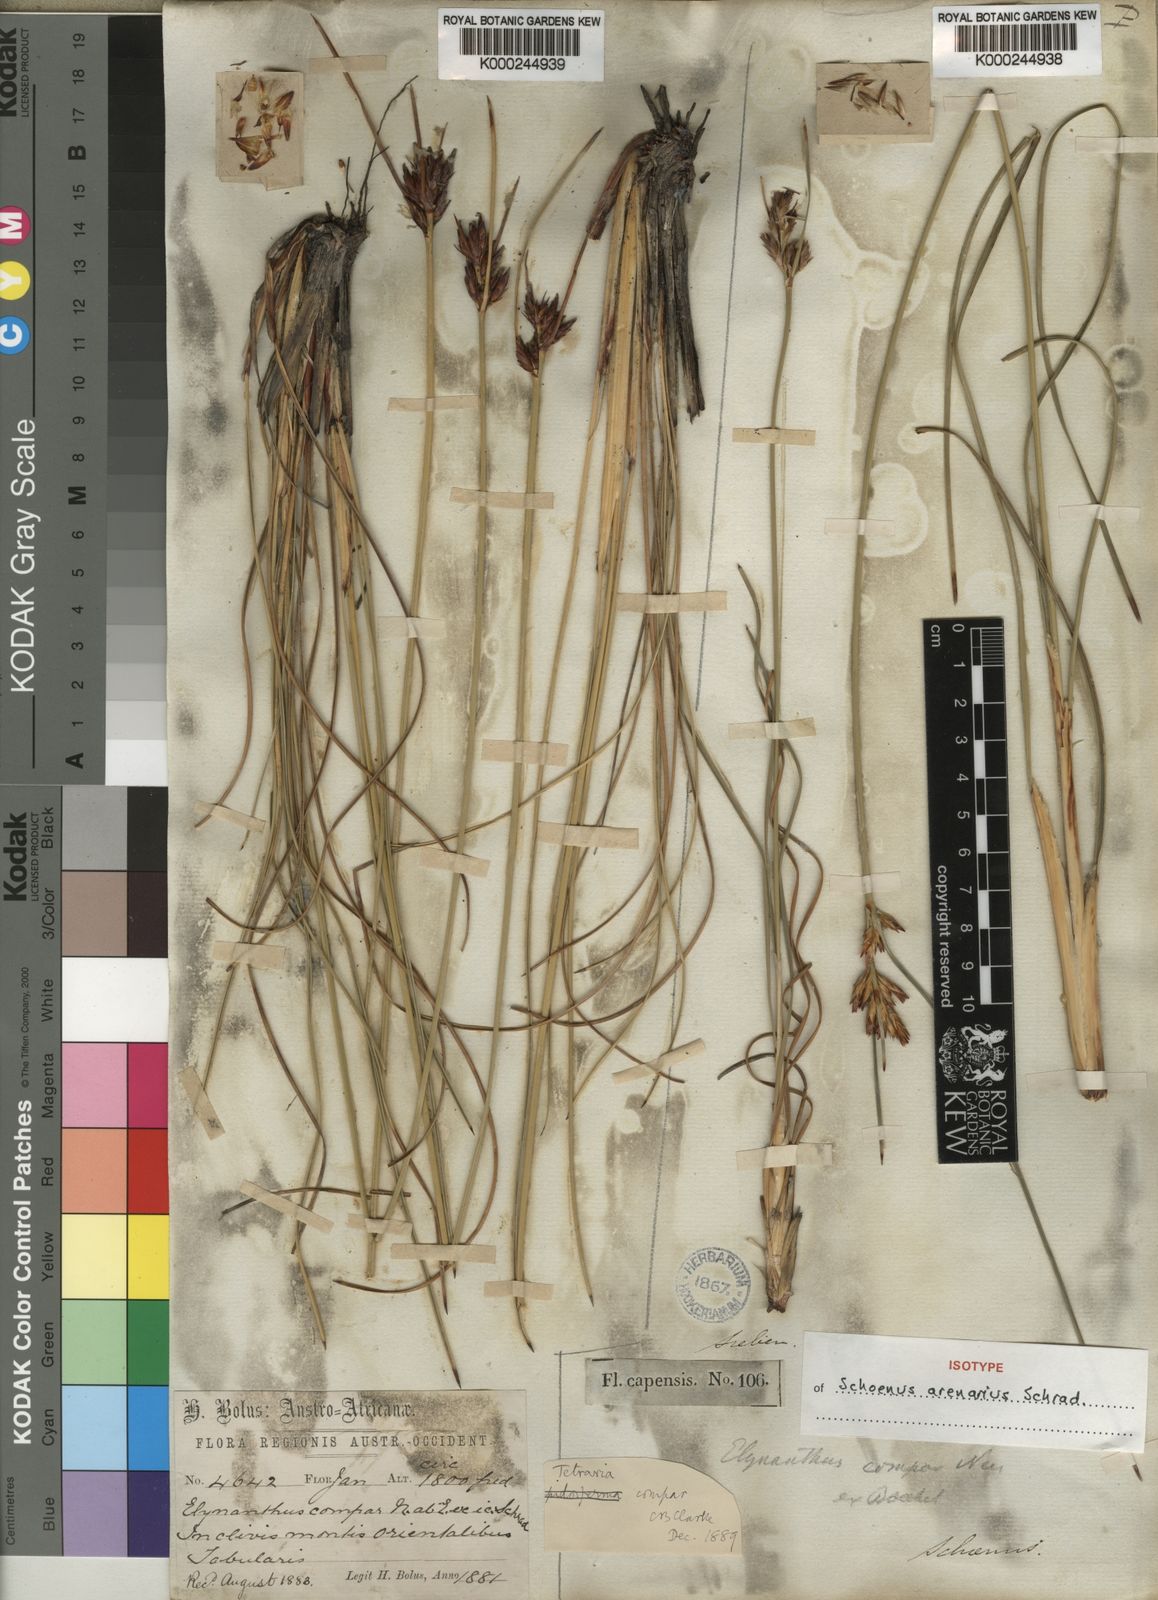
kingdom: Plantae
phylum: Tracheophyta
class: Liliopsida
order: Poales
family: Cyperaceae
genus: Schoenus
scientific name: Schoenus compar
